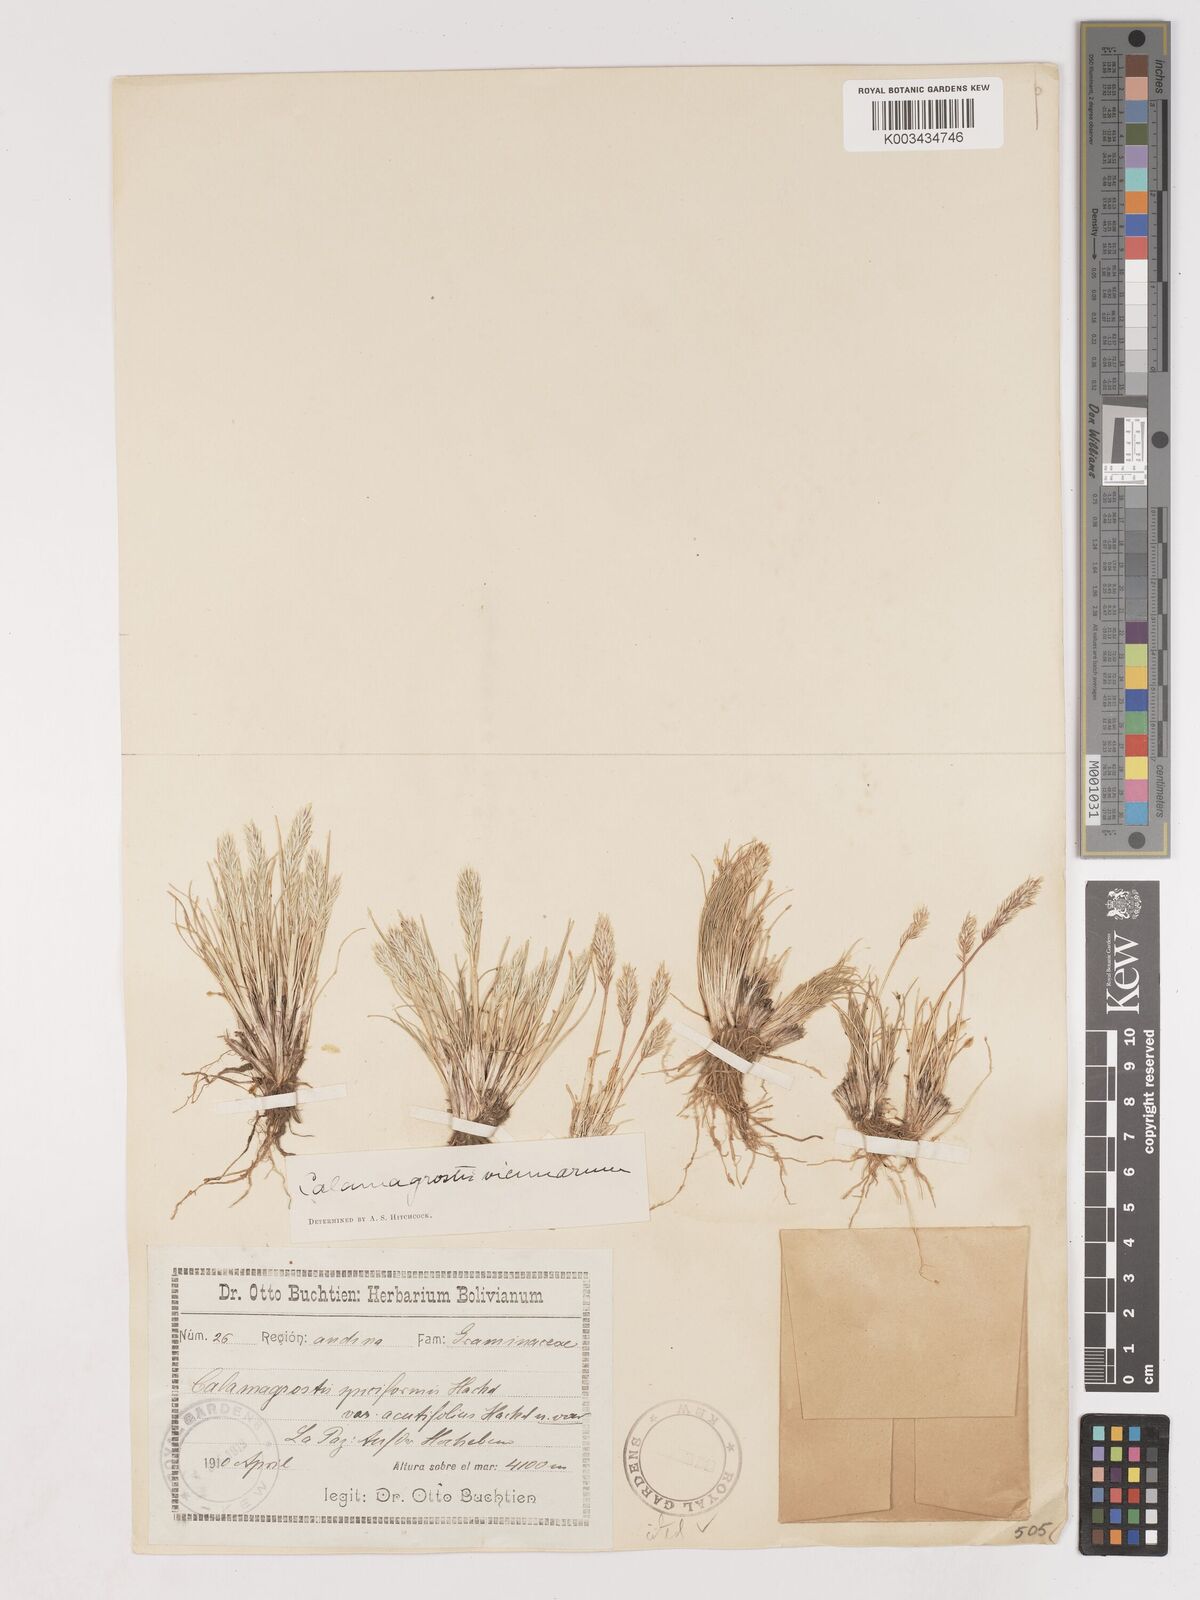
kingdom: Plantae
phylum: Tracheophyta
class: Liliopsida
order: Poales
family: Poaceae
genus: Cinnagrostis
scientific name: Cinnagrostis vicunarum
